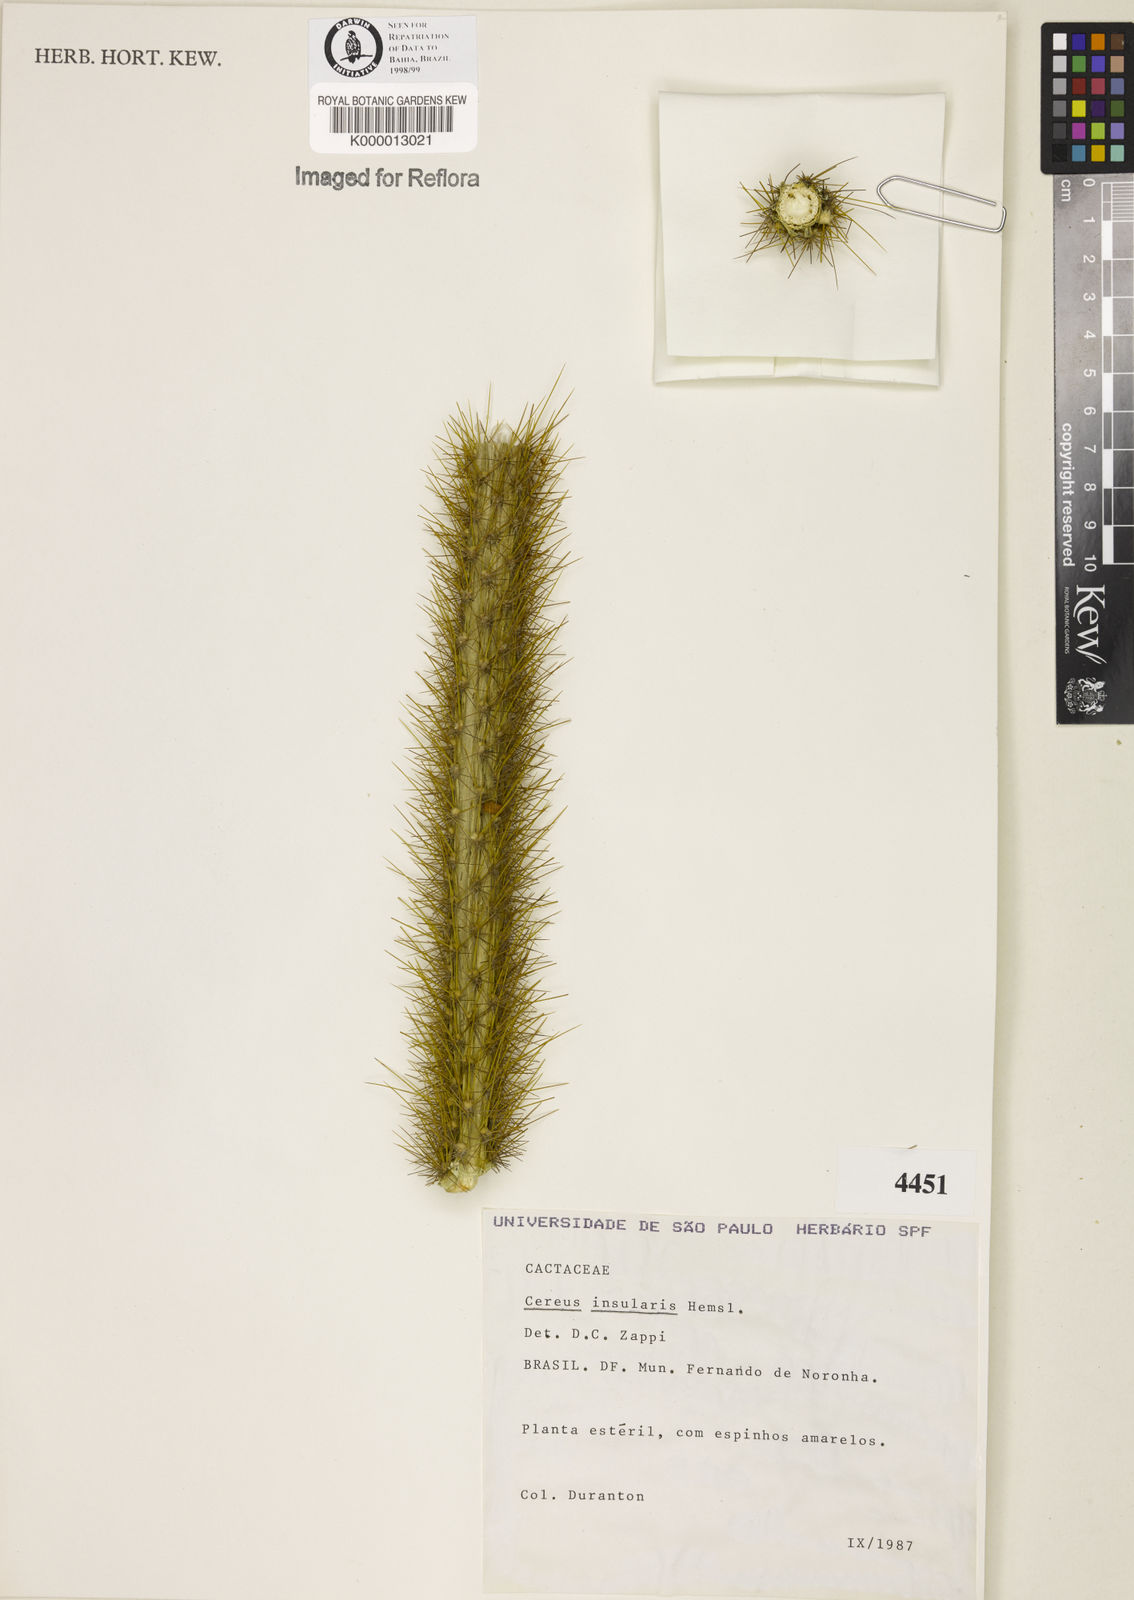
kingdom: Plantae
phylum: Tracheophyta
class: Magnoliopsida
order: Caryophyllales
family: Cactaceae
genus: Cereus
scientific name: Cereus insularis
